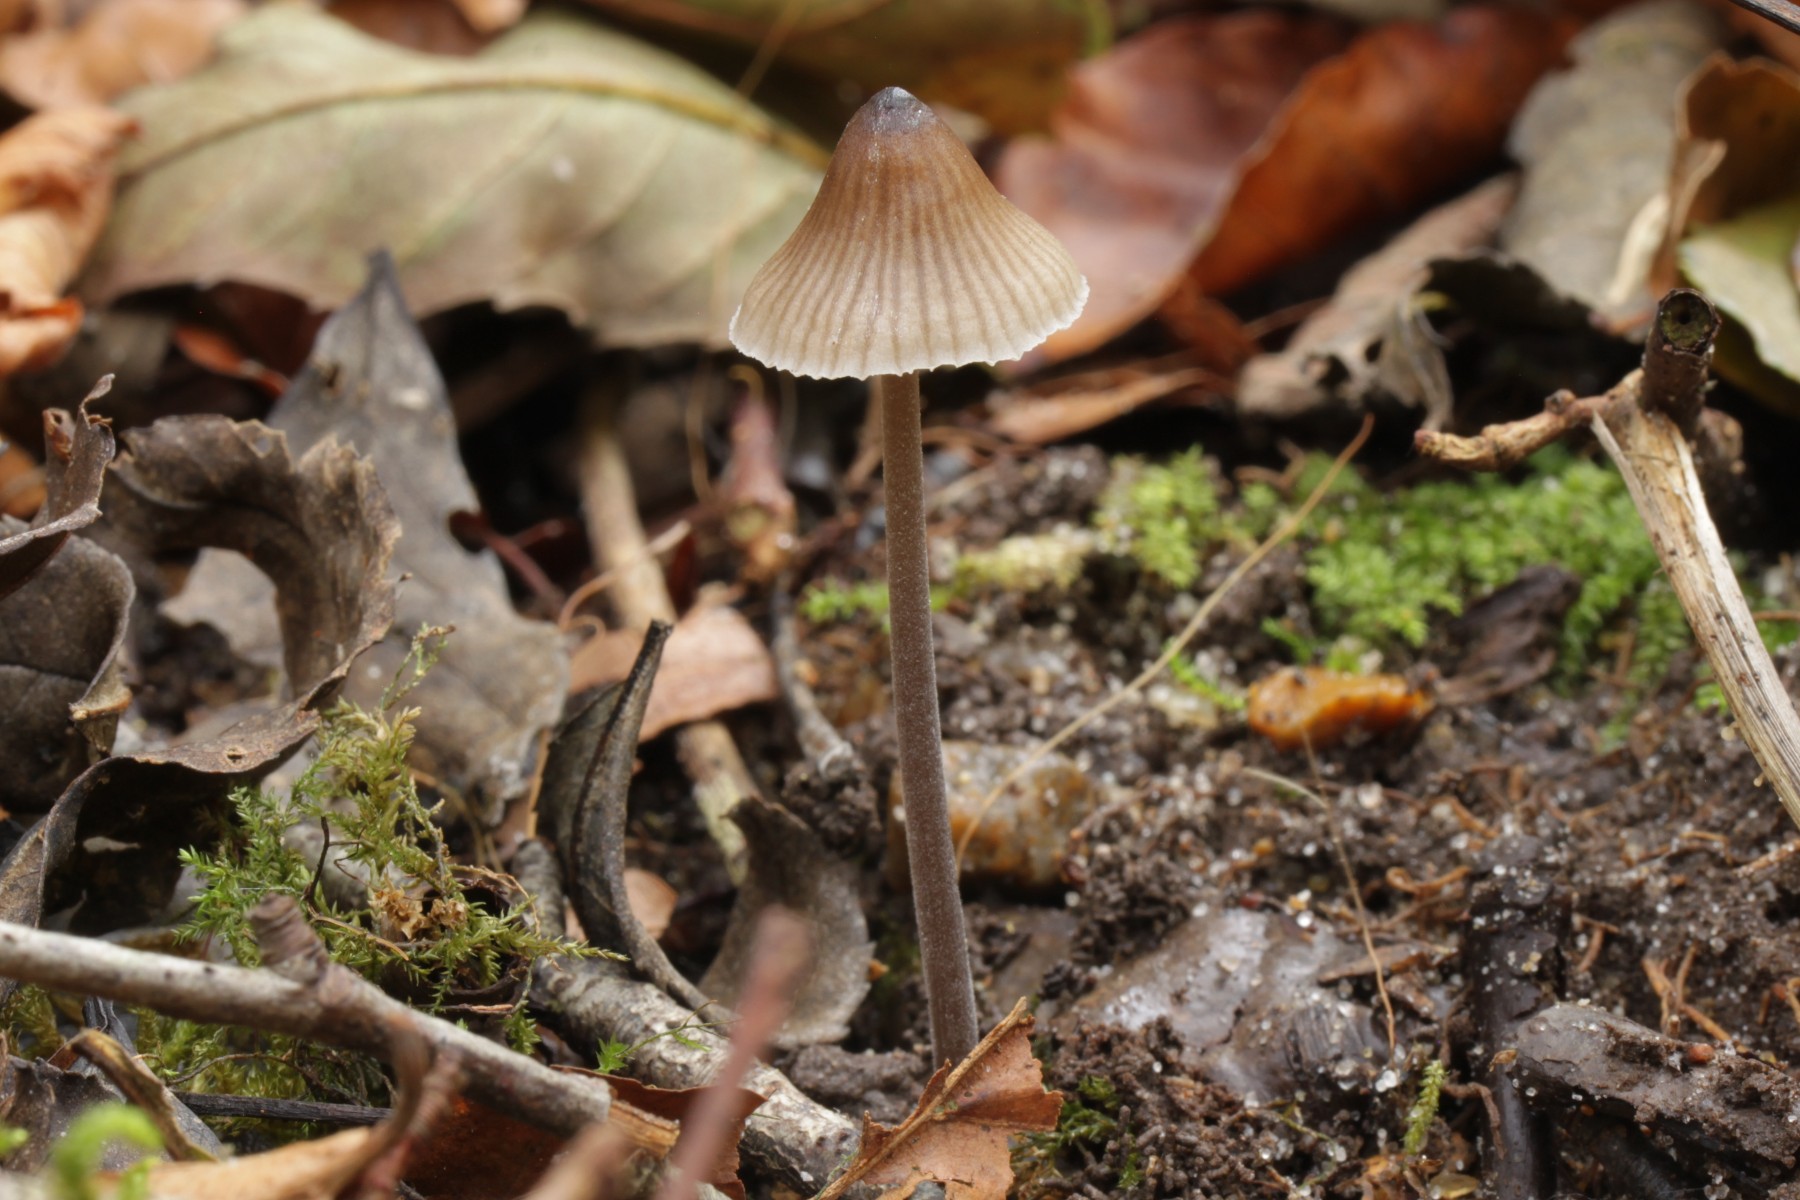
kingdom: Fungi
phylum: Basidiomycota
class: Agaricomycetes
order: Agaricales
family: Mycenaceae
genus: Mycena
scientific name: Mycena scirpicola
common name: flagelhåret huesvamp
